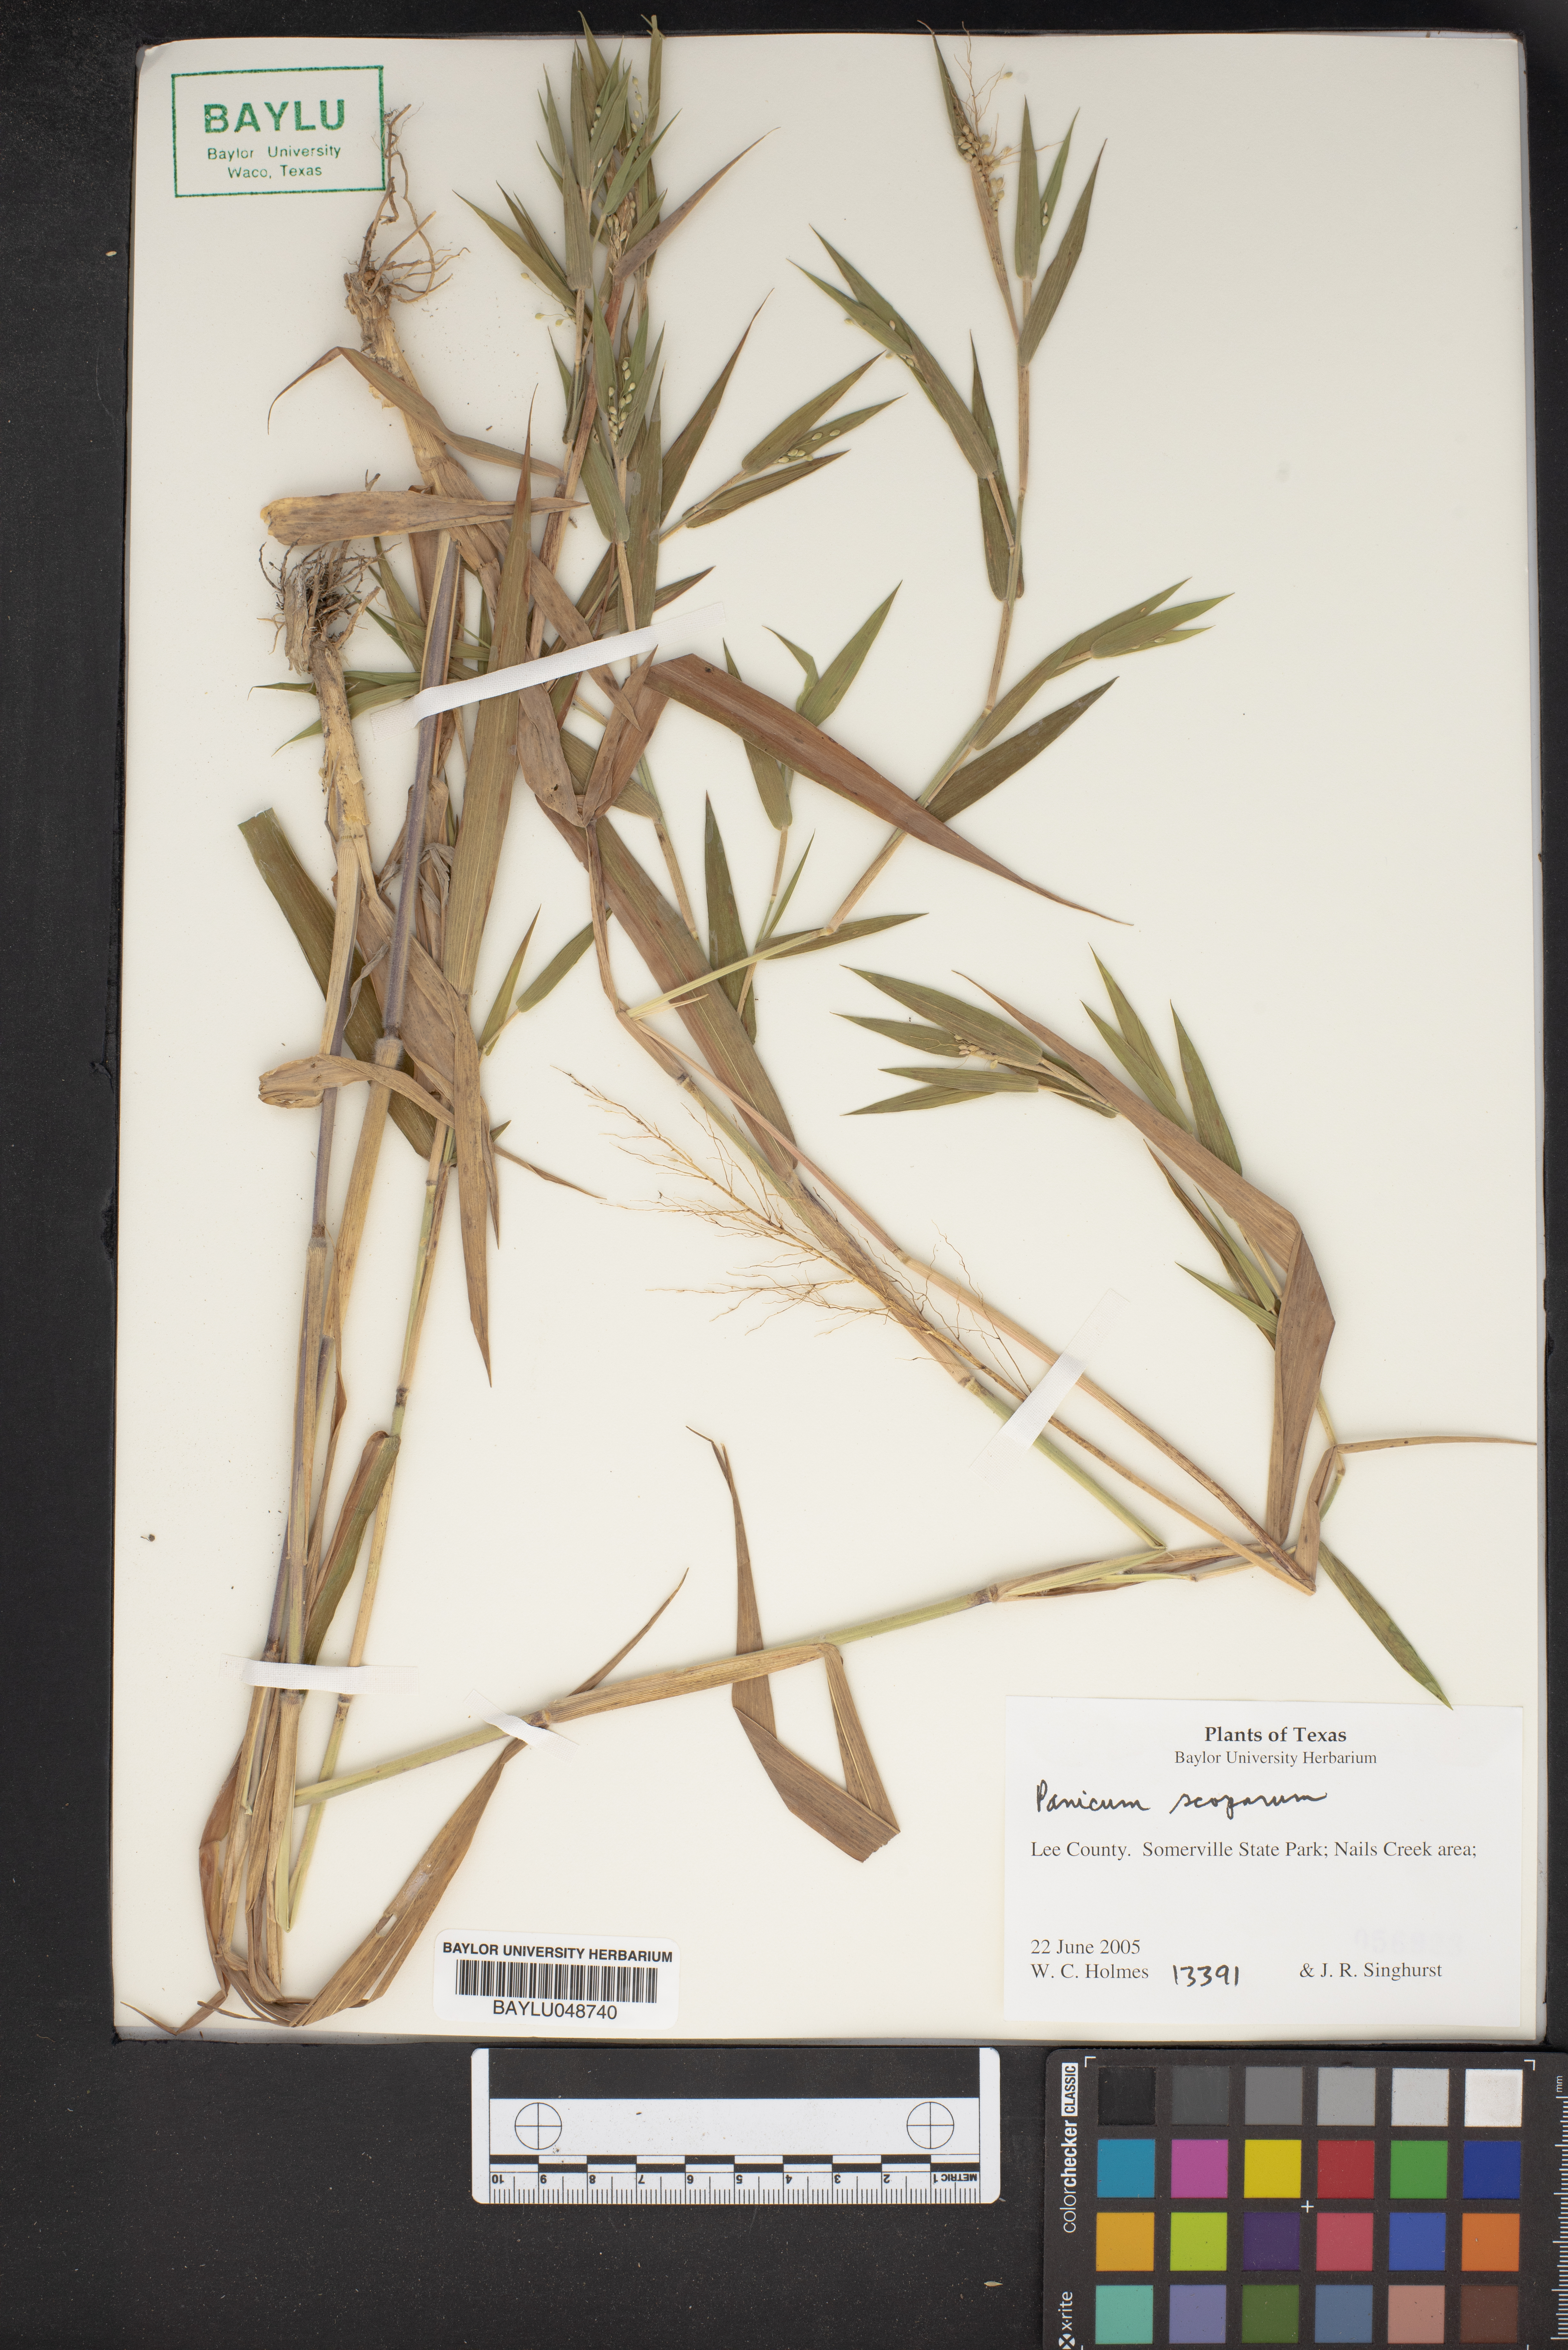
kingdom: Plantae
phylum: Tracheophyta
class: Liliopsida
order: Poales
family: Poaceae
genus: Dichanthelium
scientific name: Dichanthelium scribnerianum
